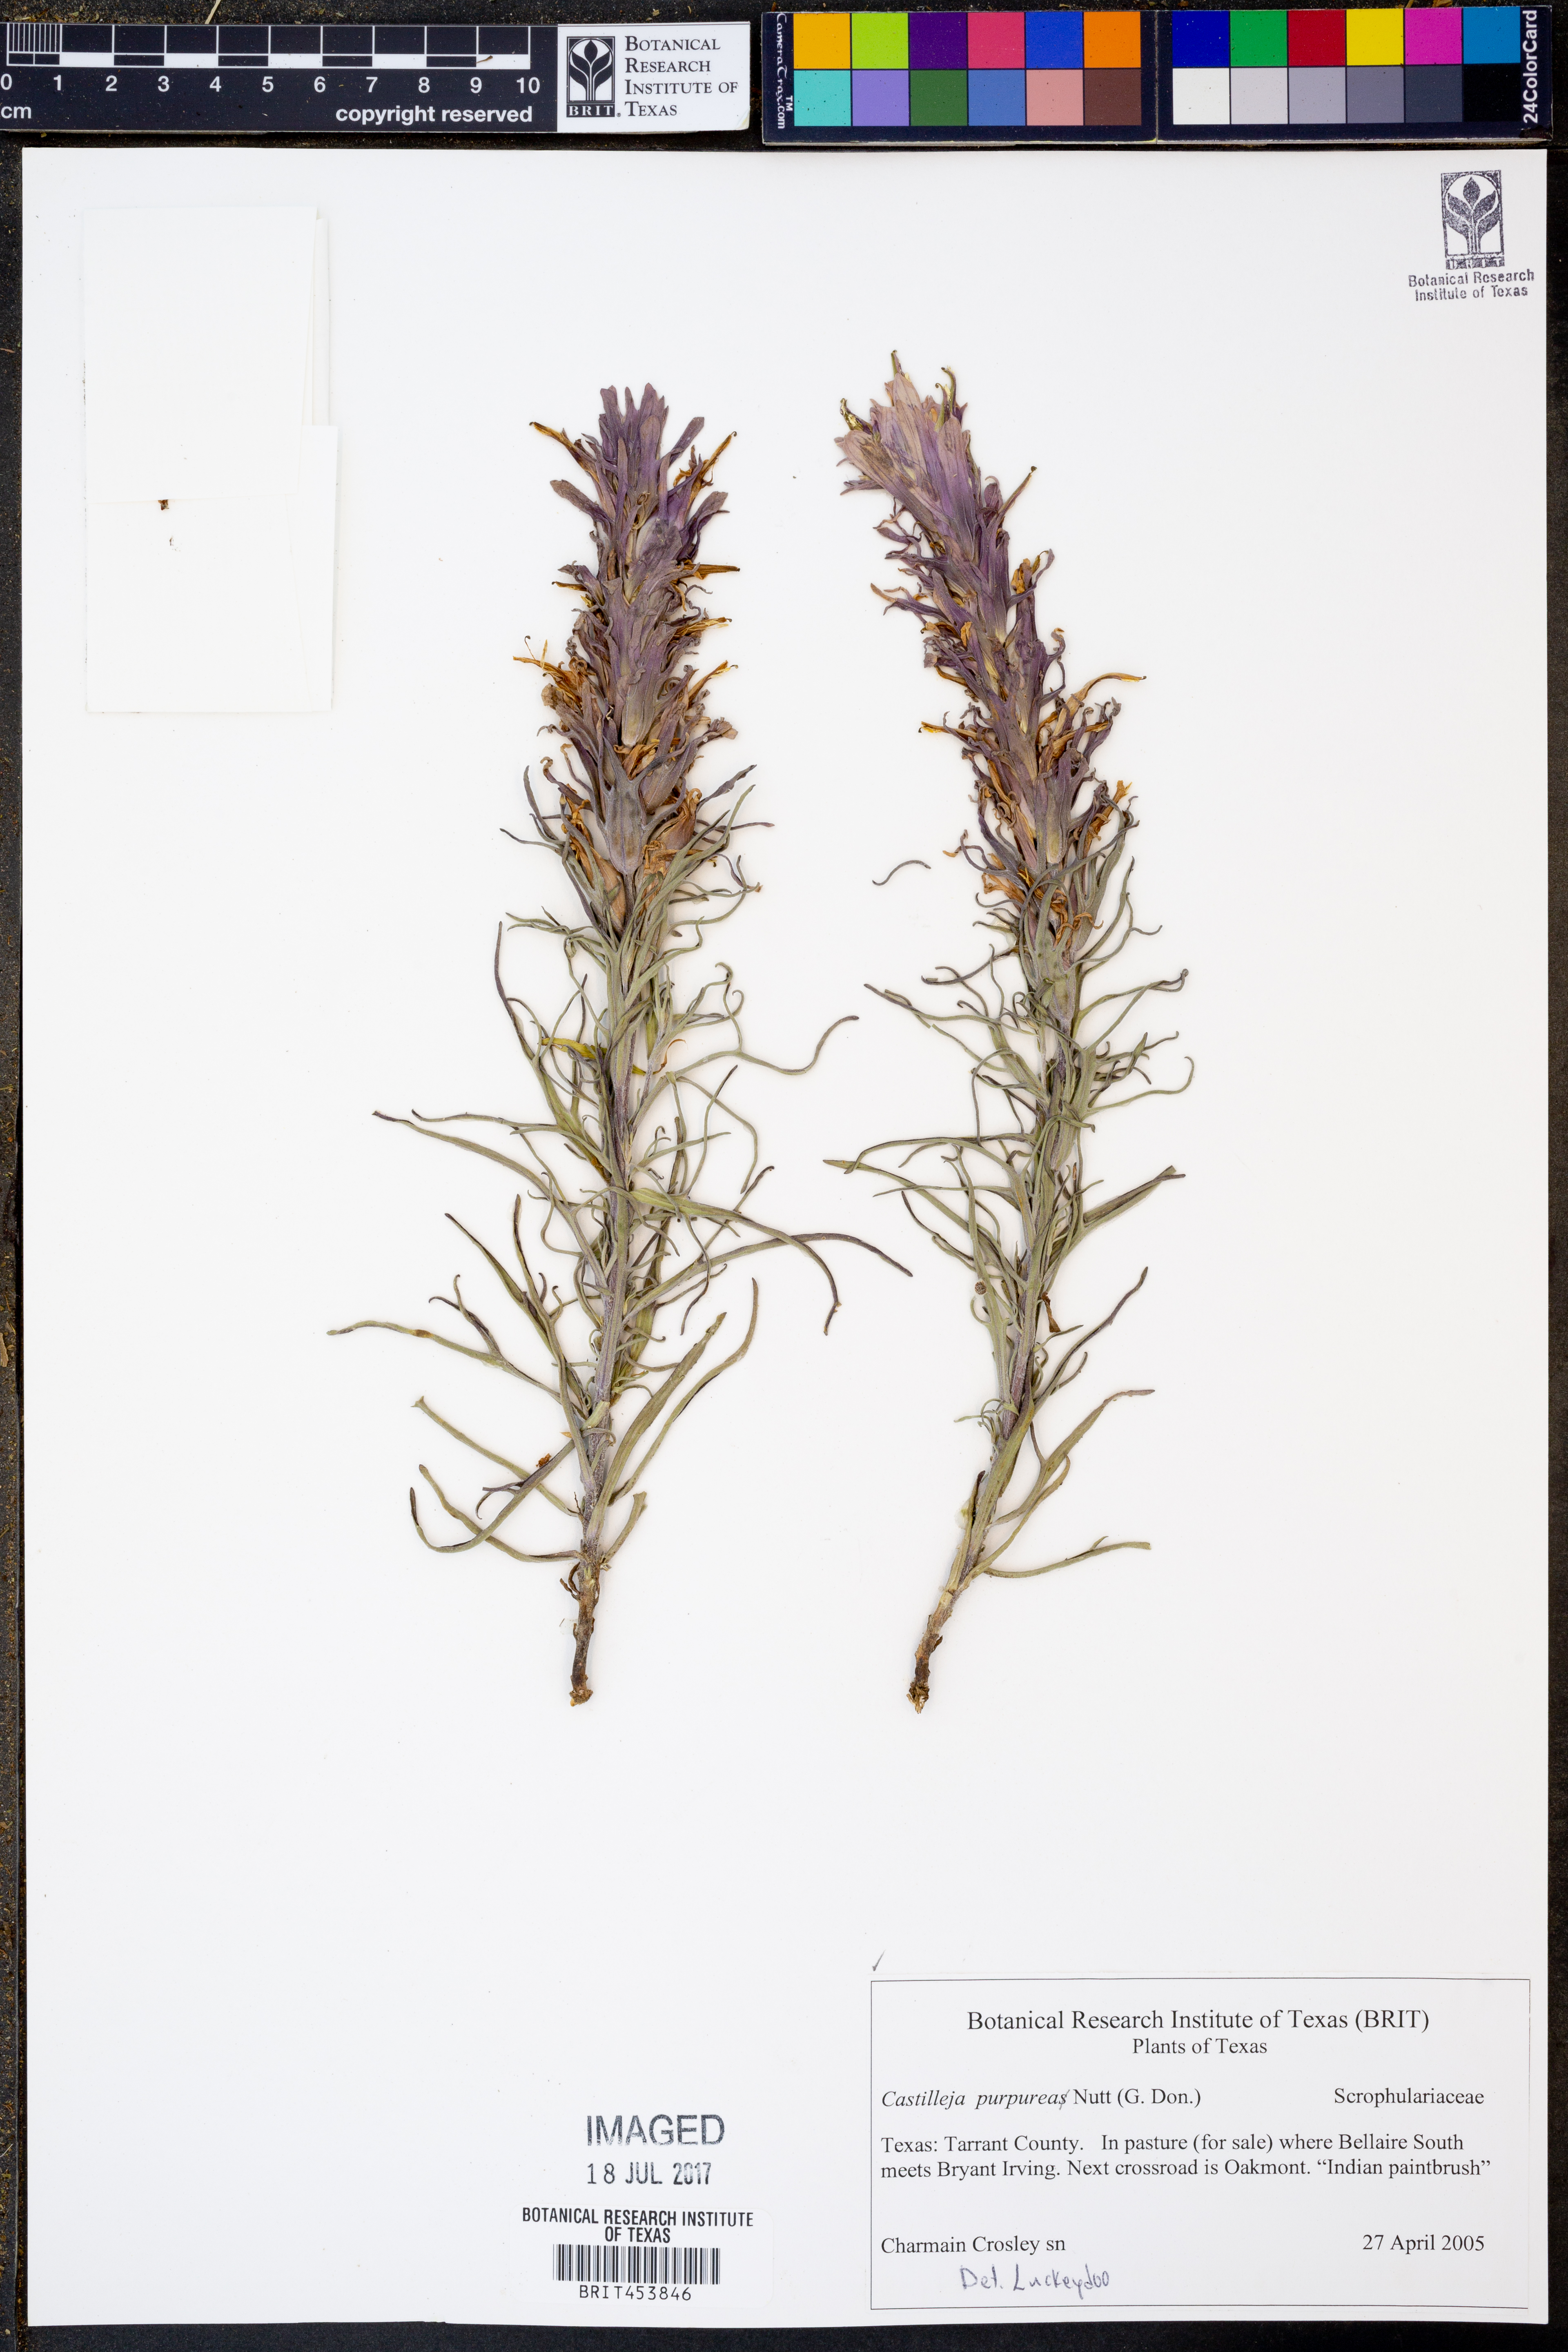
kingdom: Plantae
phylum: Tracheophyta
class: Magnoliopsida
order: Lamiales
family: Orobanchaceae
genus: Castilleja
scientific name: Castilleja purpurea
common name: Plains paintbrush
